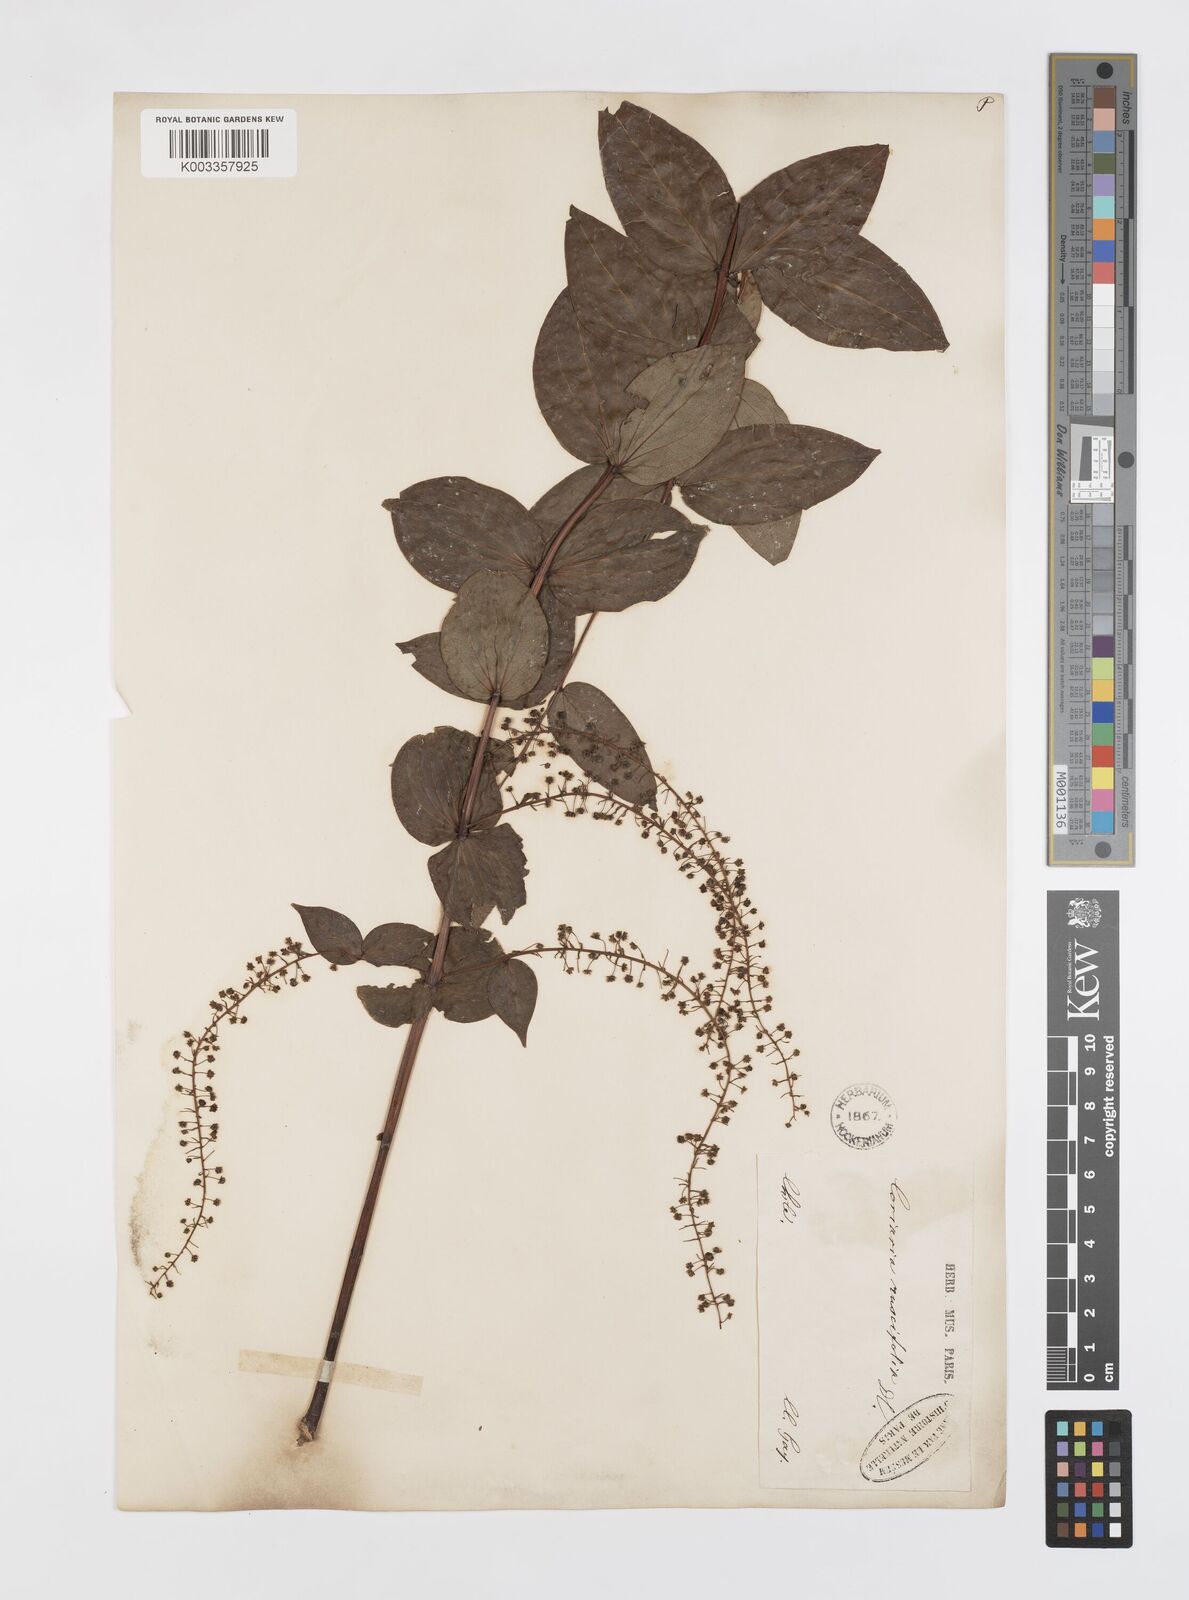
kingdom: Plantae
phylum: Tracheophyta
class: Magnoliopsida
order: Cucurbitales
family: Coriariaceae
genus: Coriaria
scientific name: Coriaria ruscifolia
